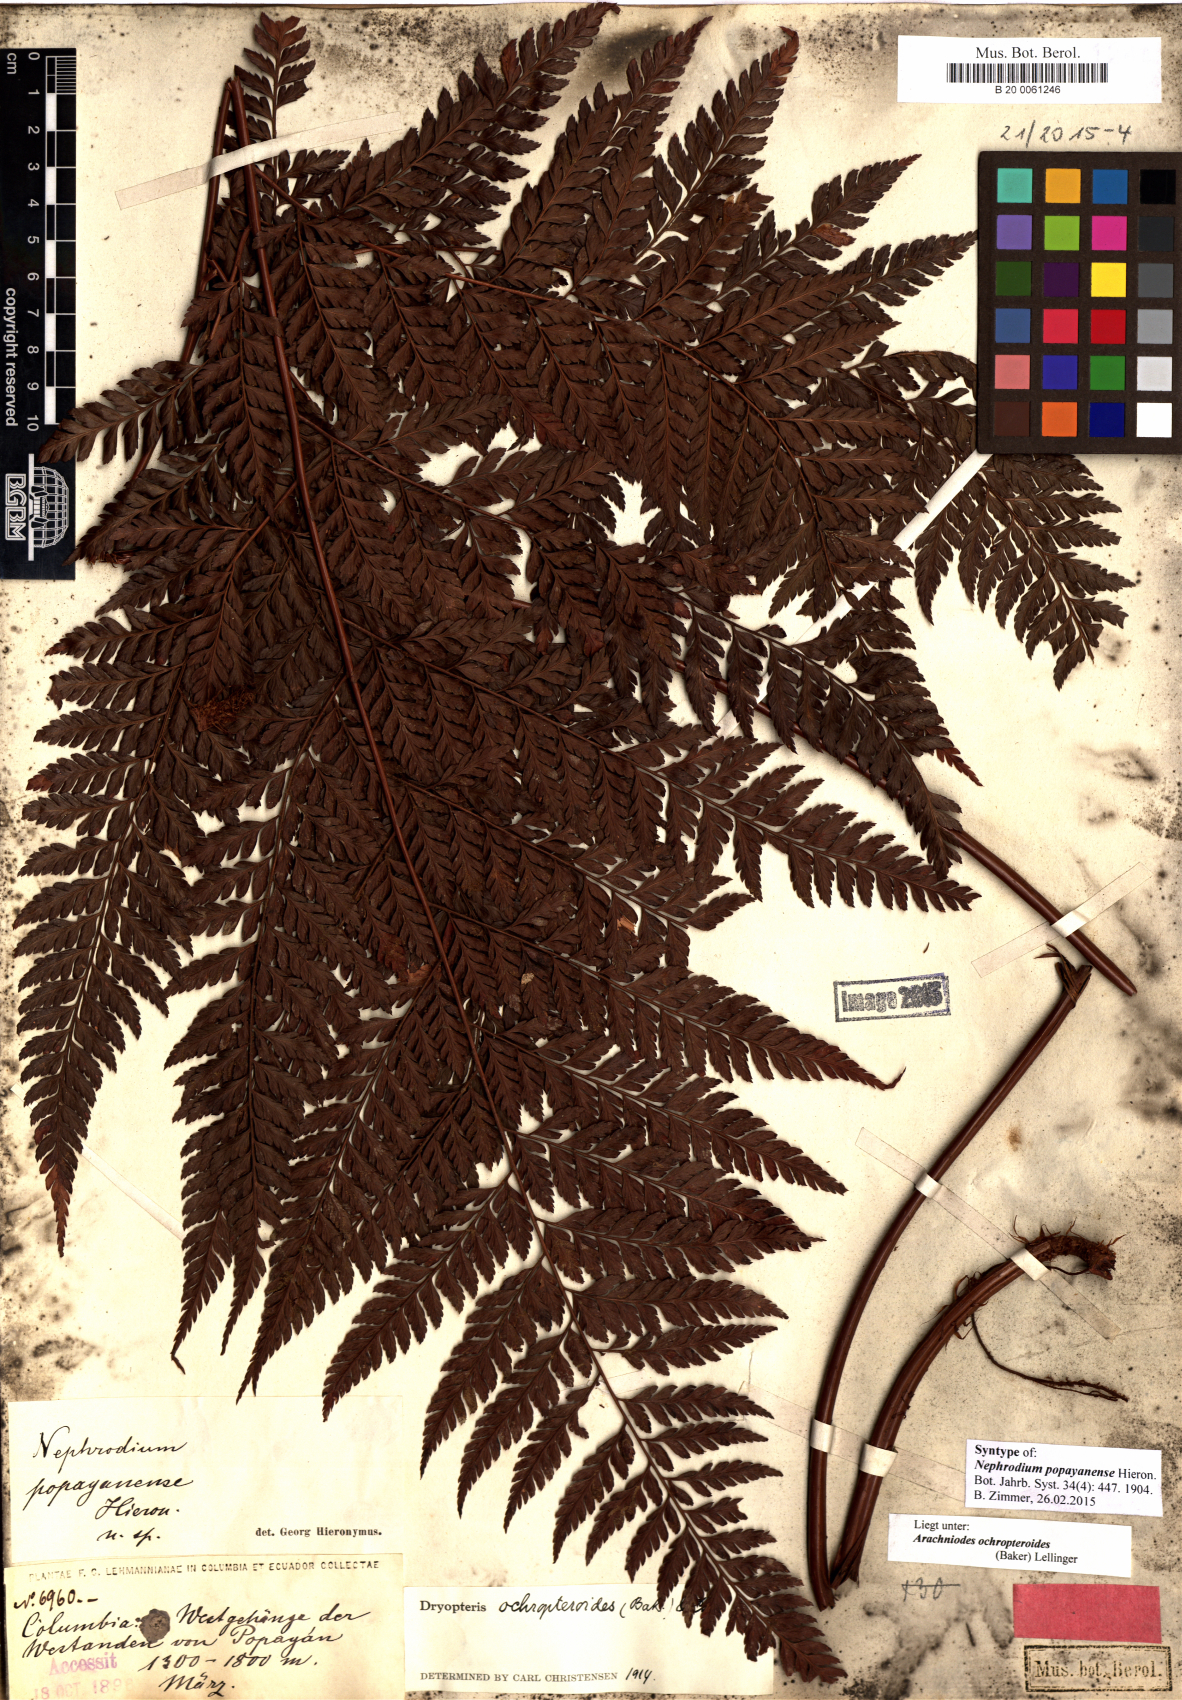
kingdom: Plantae
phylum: Tracheophyta
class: Polypodiopsida
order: Polypodiales
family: Dryopteridaceae
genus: Olfersia
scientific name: Olfersia ochropteroides
